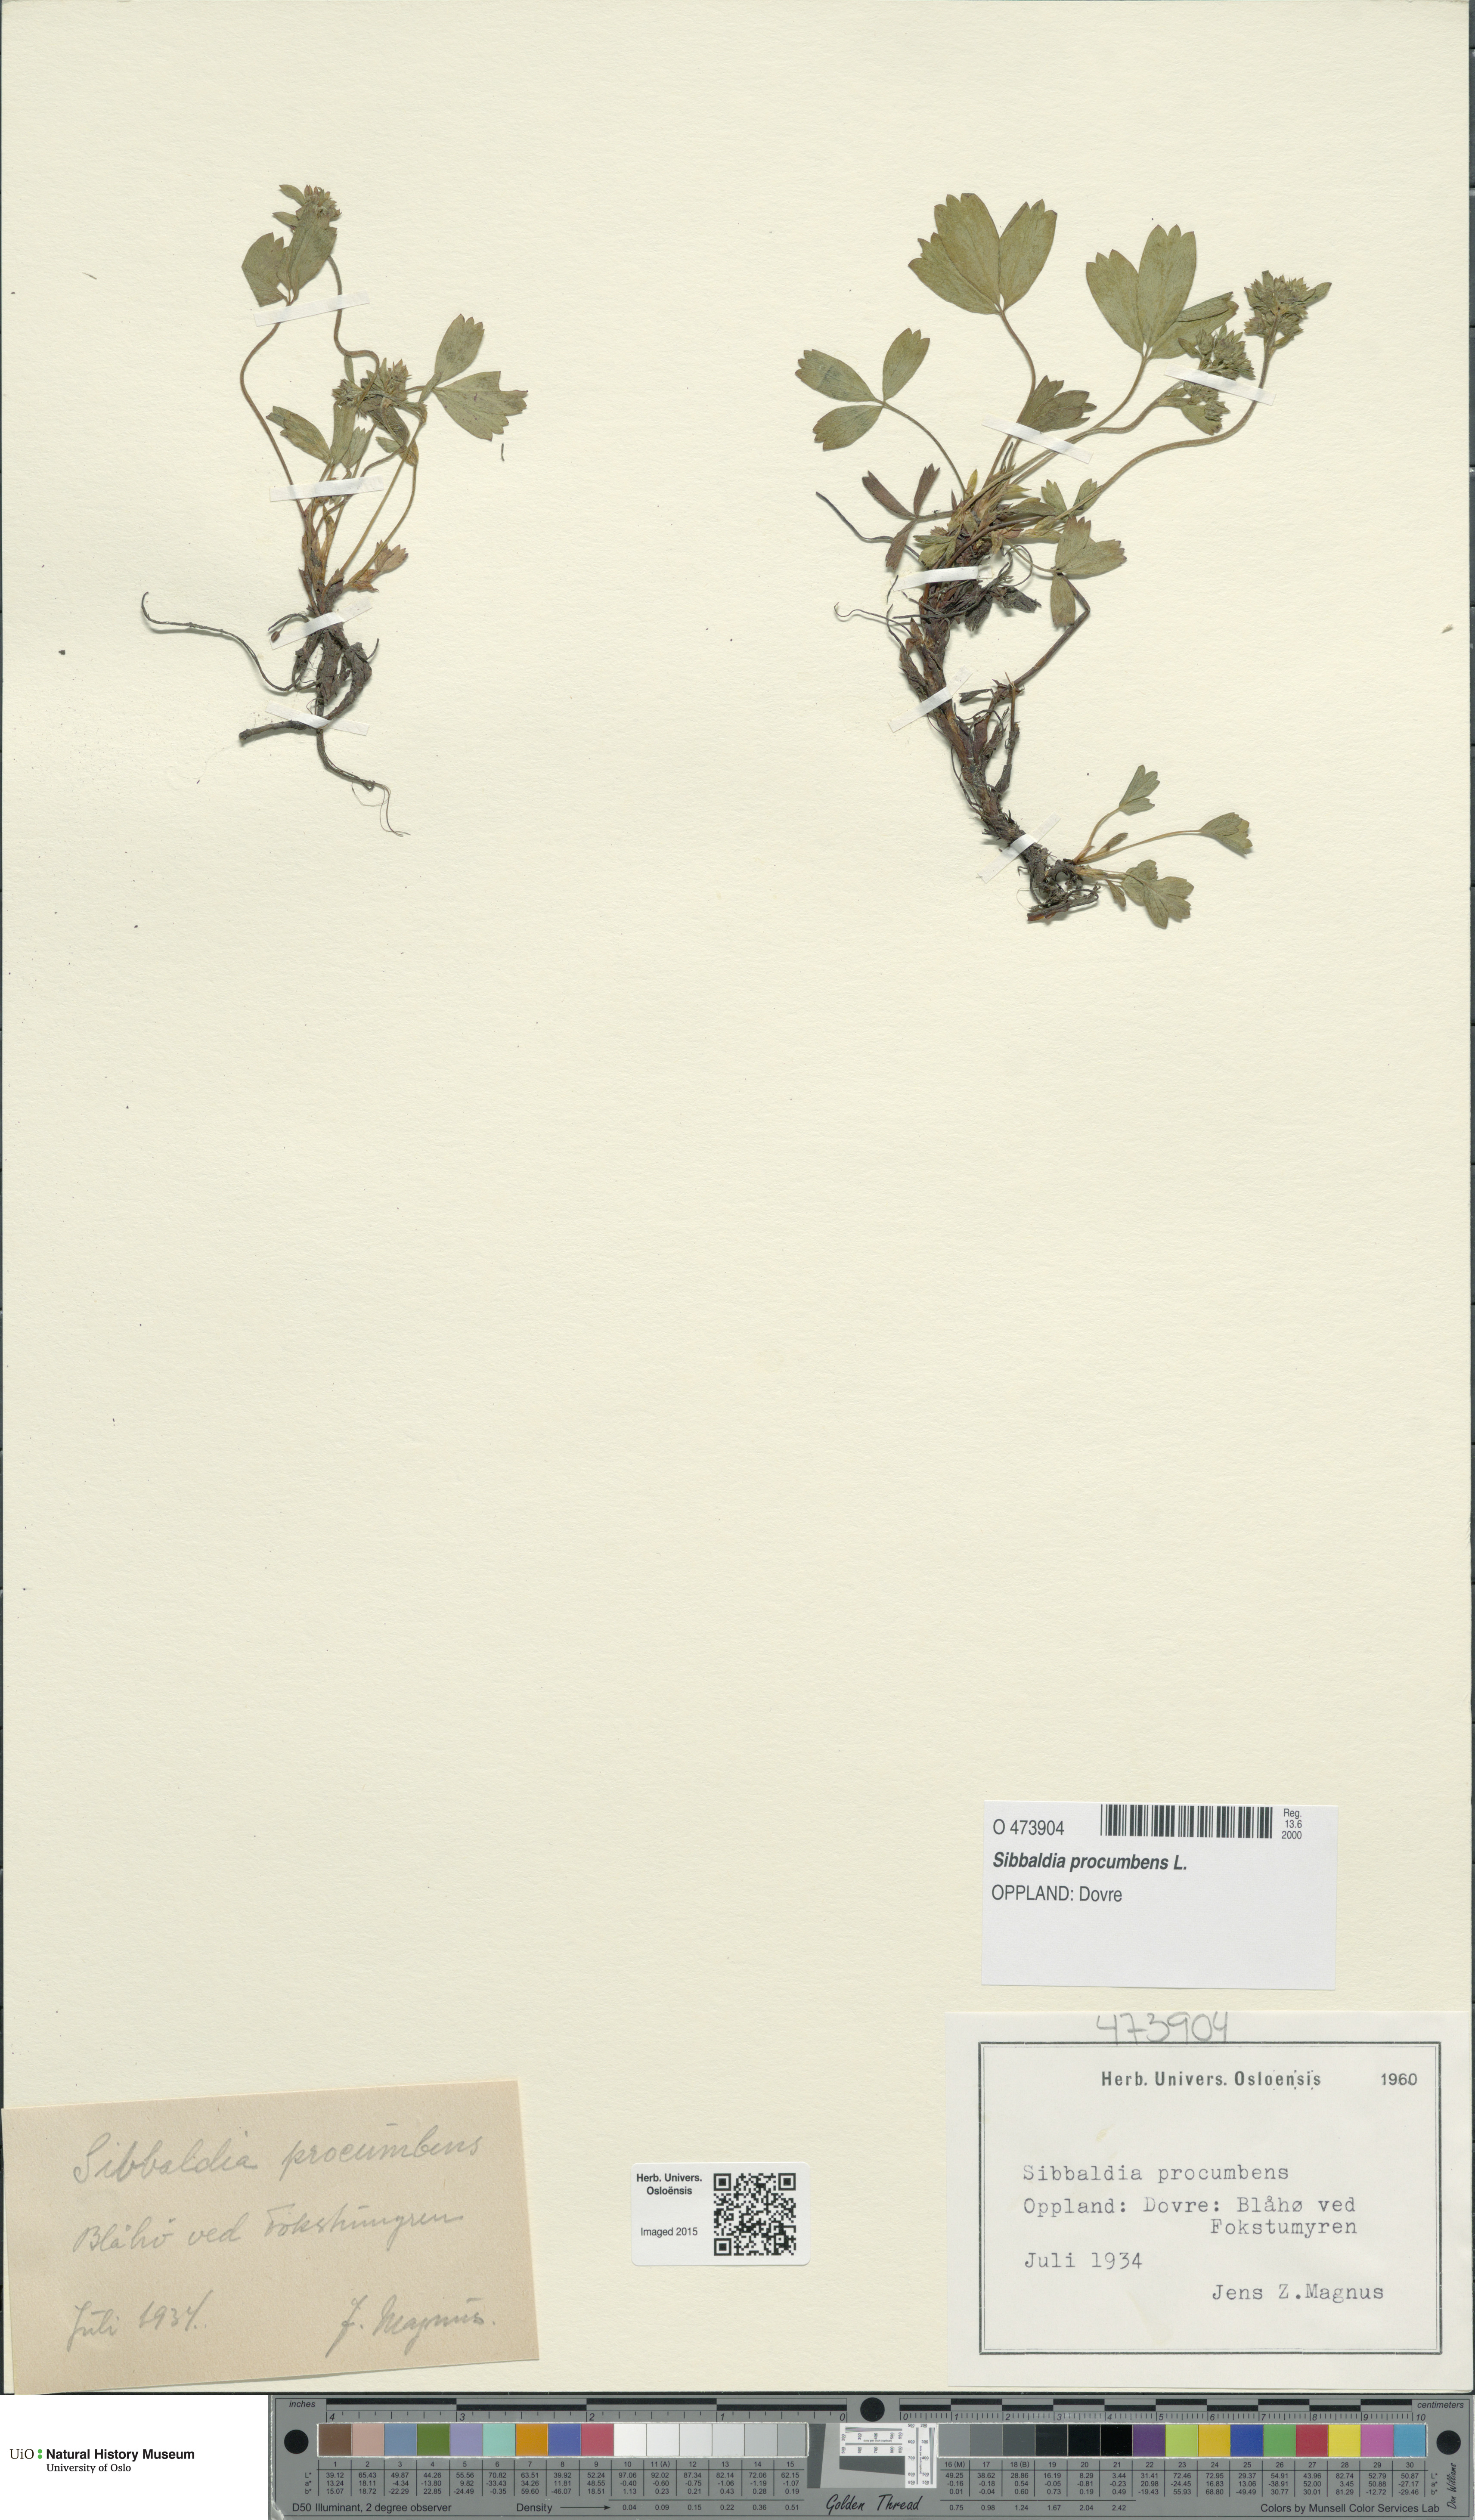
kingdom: Plantae
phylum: Tracheophyta
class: Magnoliopsida
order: Rosales
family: Rosaceae
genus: Sibbaldia
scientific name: Sibbaldia procumbens
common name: Creeping sibbaldia
